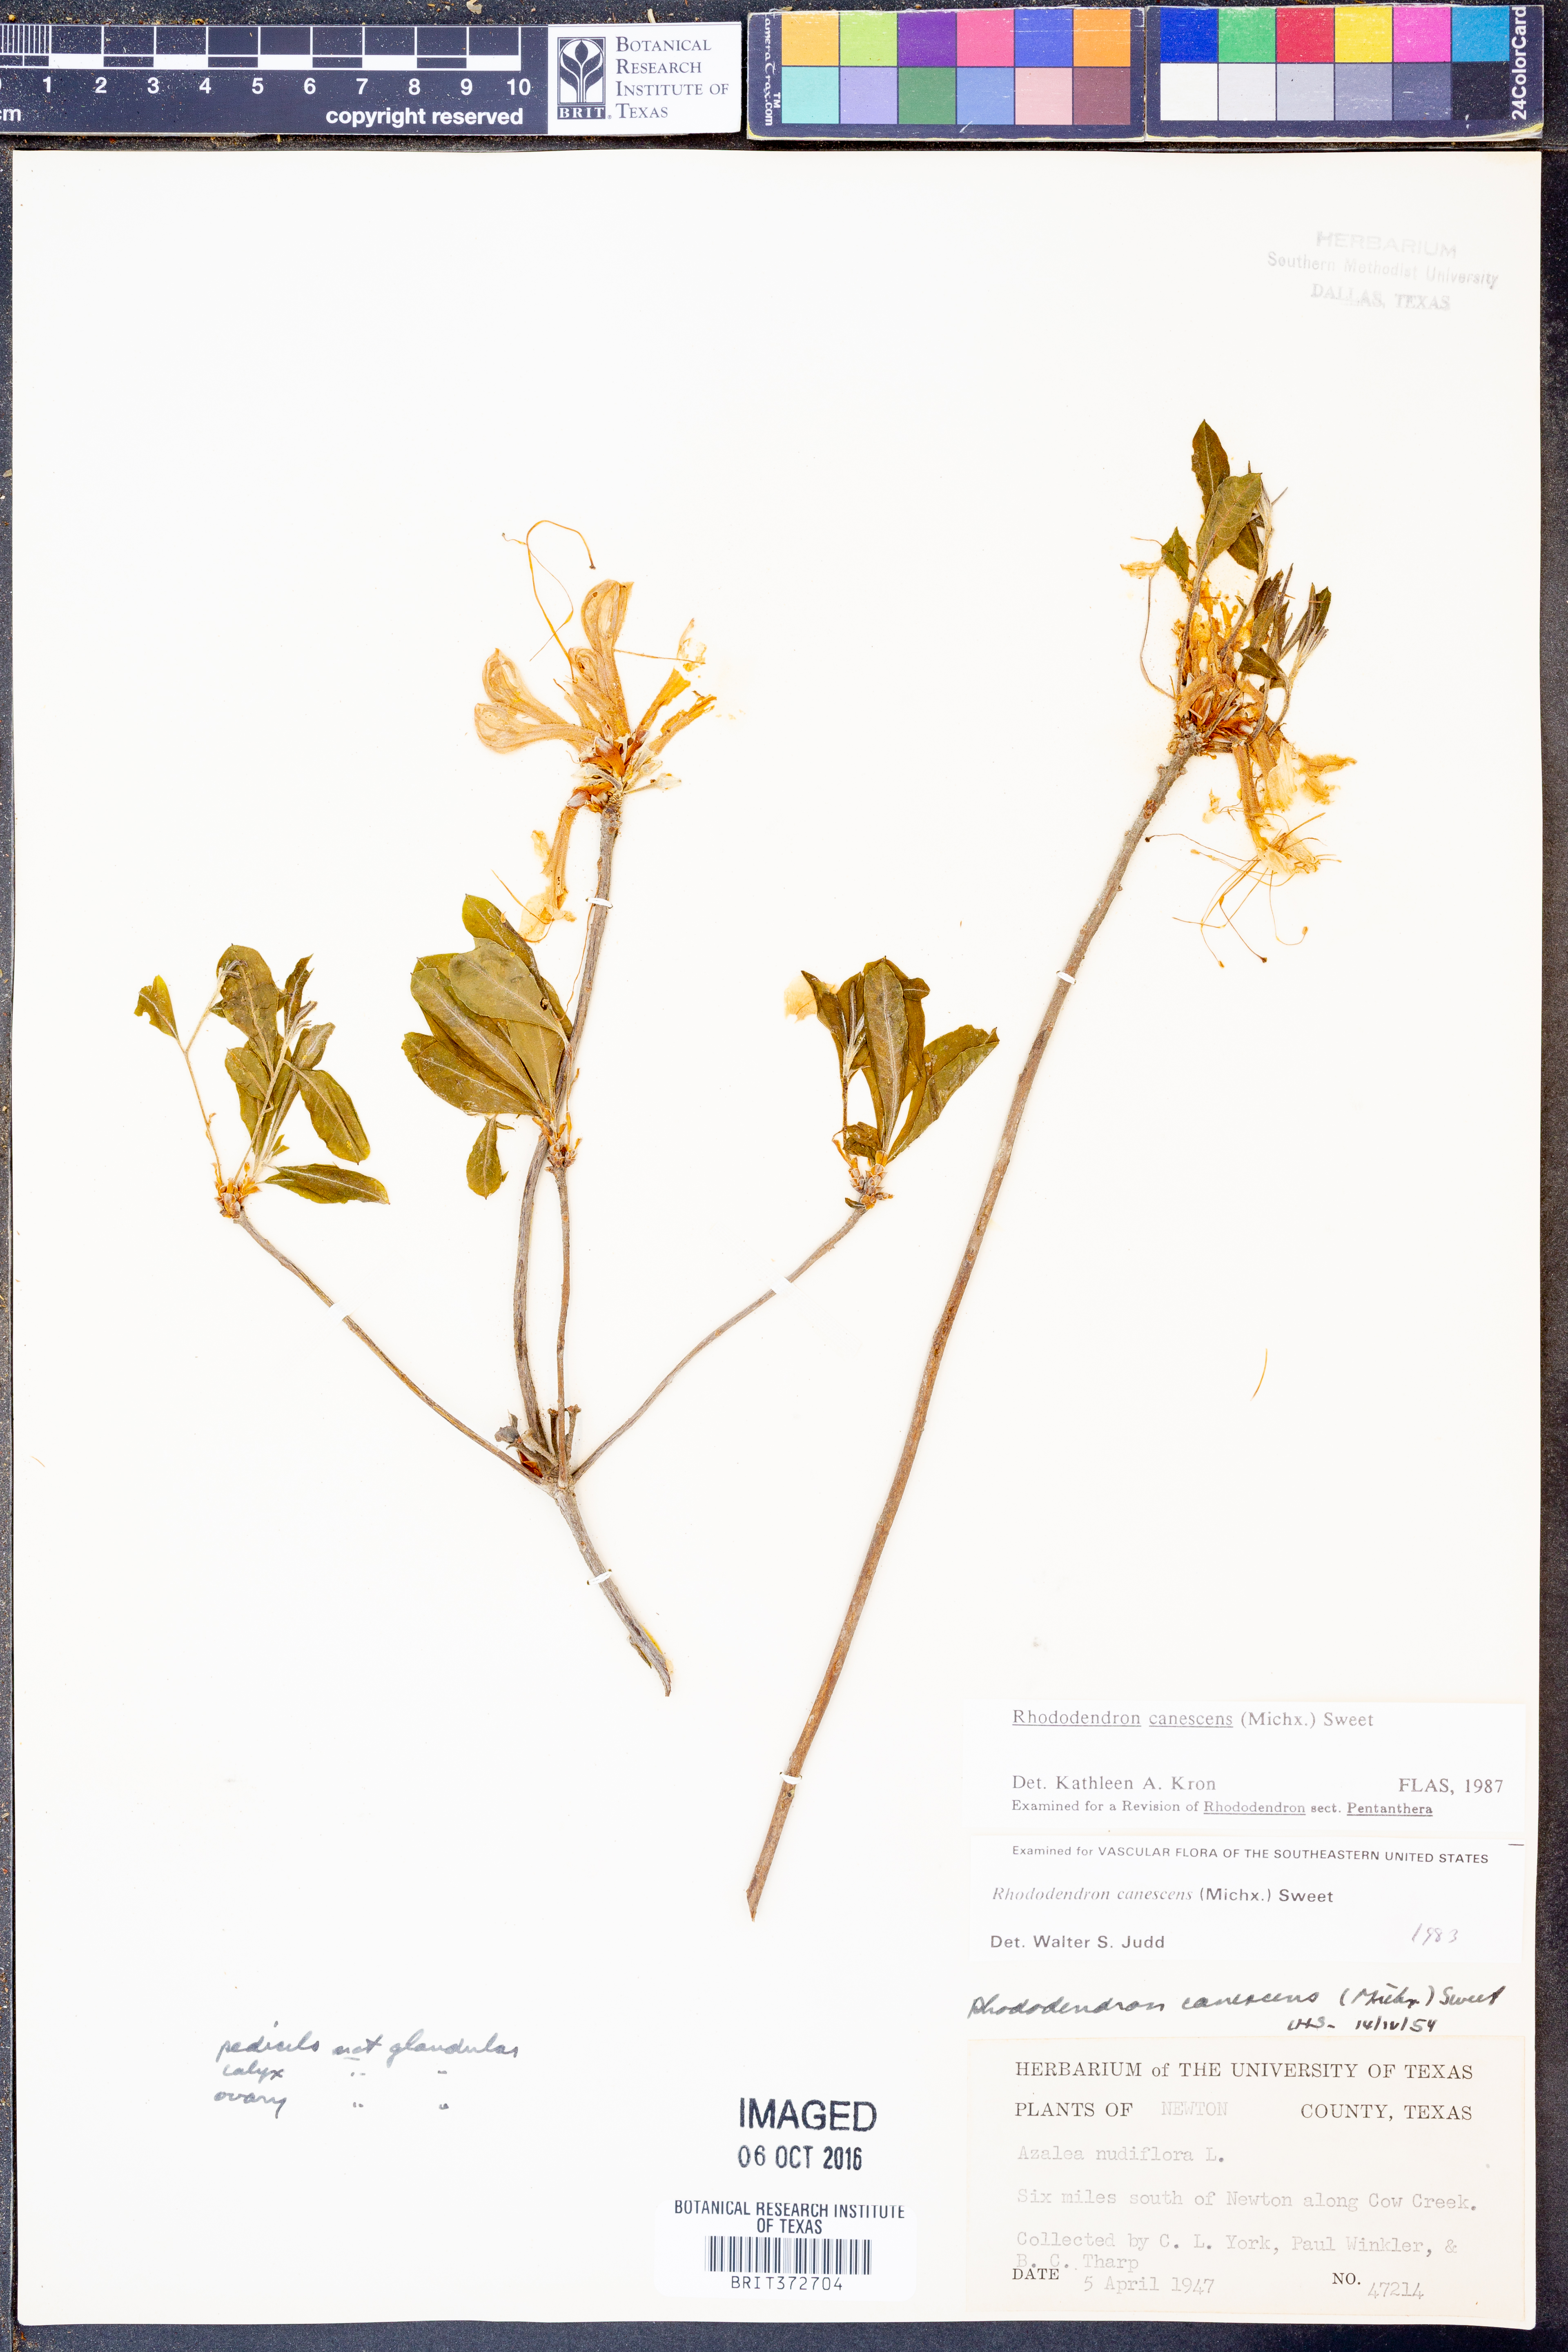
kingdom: Plantae
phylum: Tracheophyta
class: Magnoliopsida
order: Ericales
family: Ericaceae
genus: Rhododendron
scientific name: Rhododendron canescens
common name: Mountain azalea
